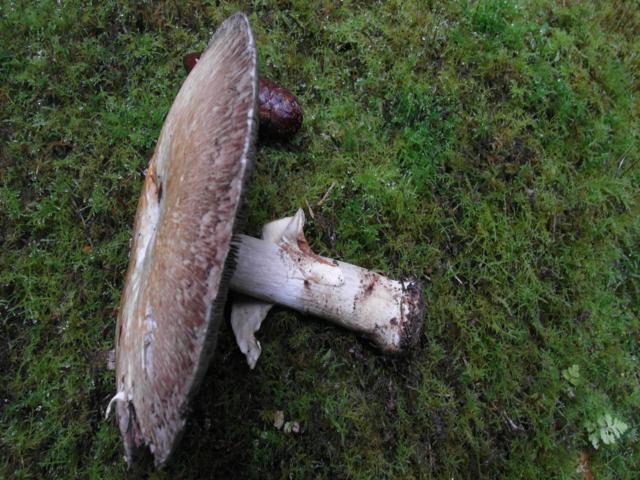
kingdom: Fungi
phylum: Basidiomycota
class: Agaricomycetes
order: Agaricales
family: Agaricaceae
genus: Agaricus
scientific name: Agaricus sylvicola
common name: skiveknoldet champignon
